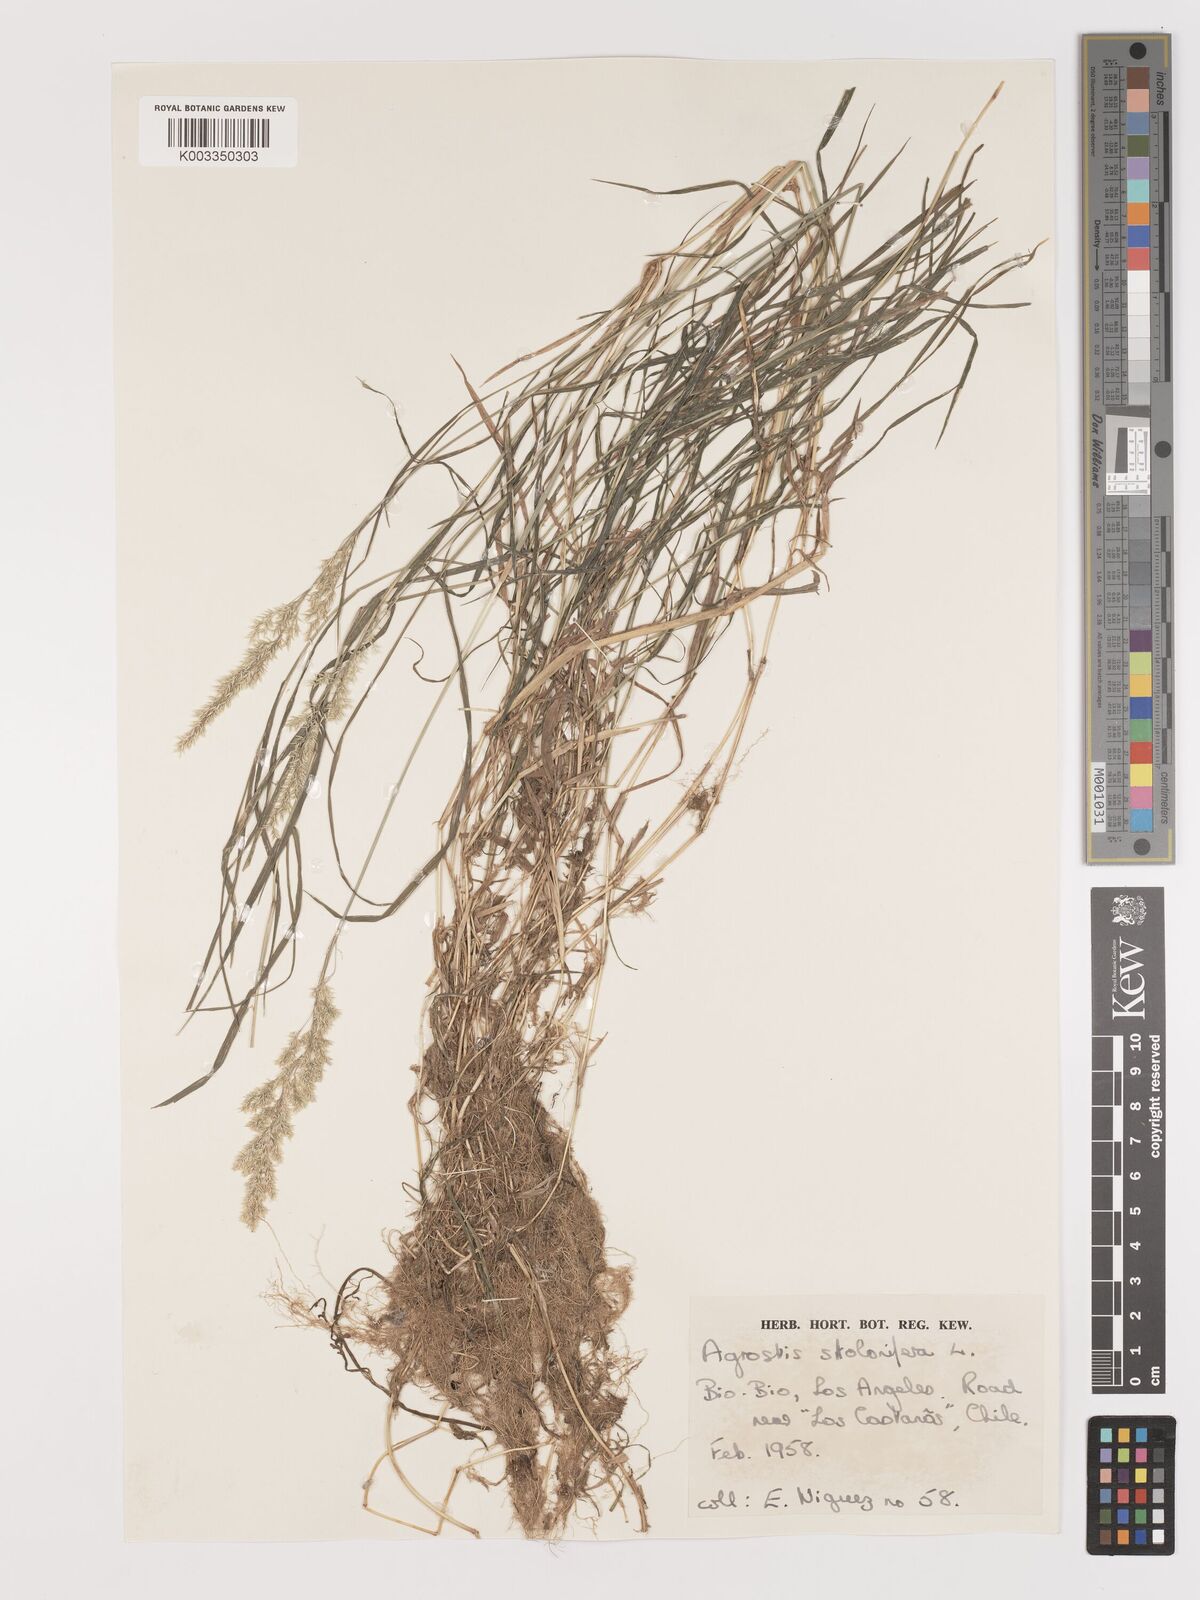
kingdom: Plantae
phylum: Tracheophyta
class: Liliopsida
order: Poales
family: Poaceae
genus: Agrostis
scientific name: Agrostis stolonifera
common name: Creeping bentgrass
